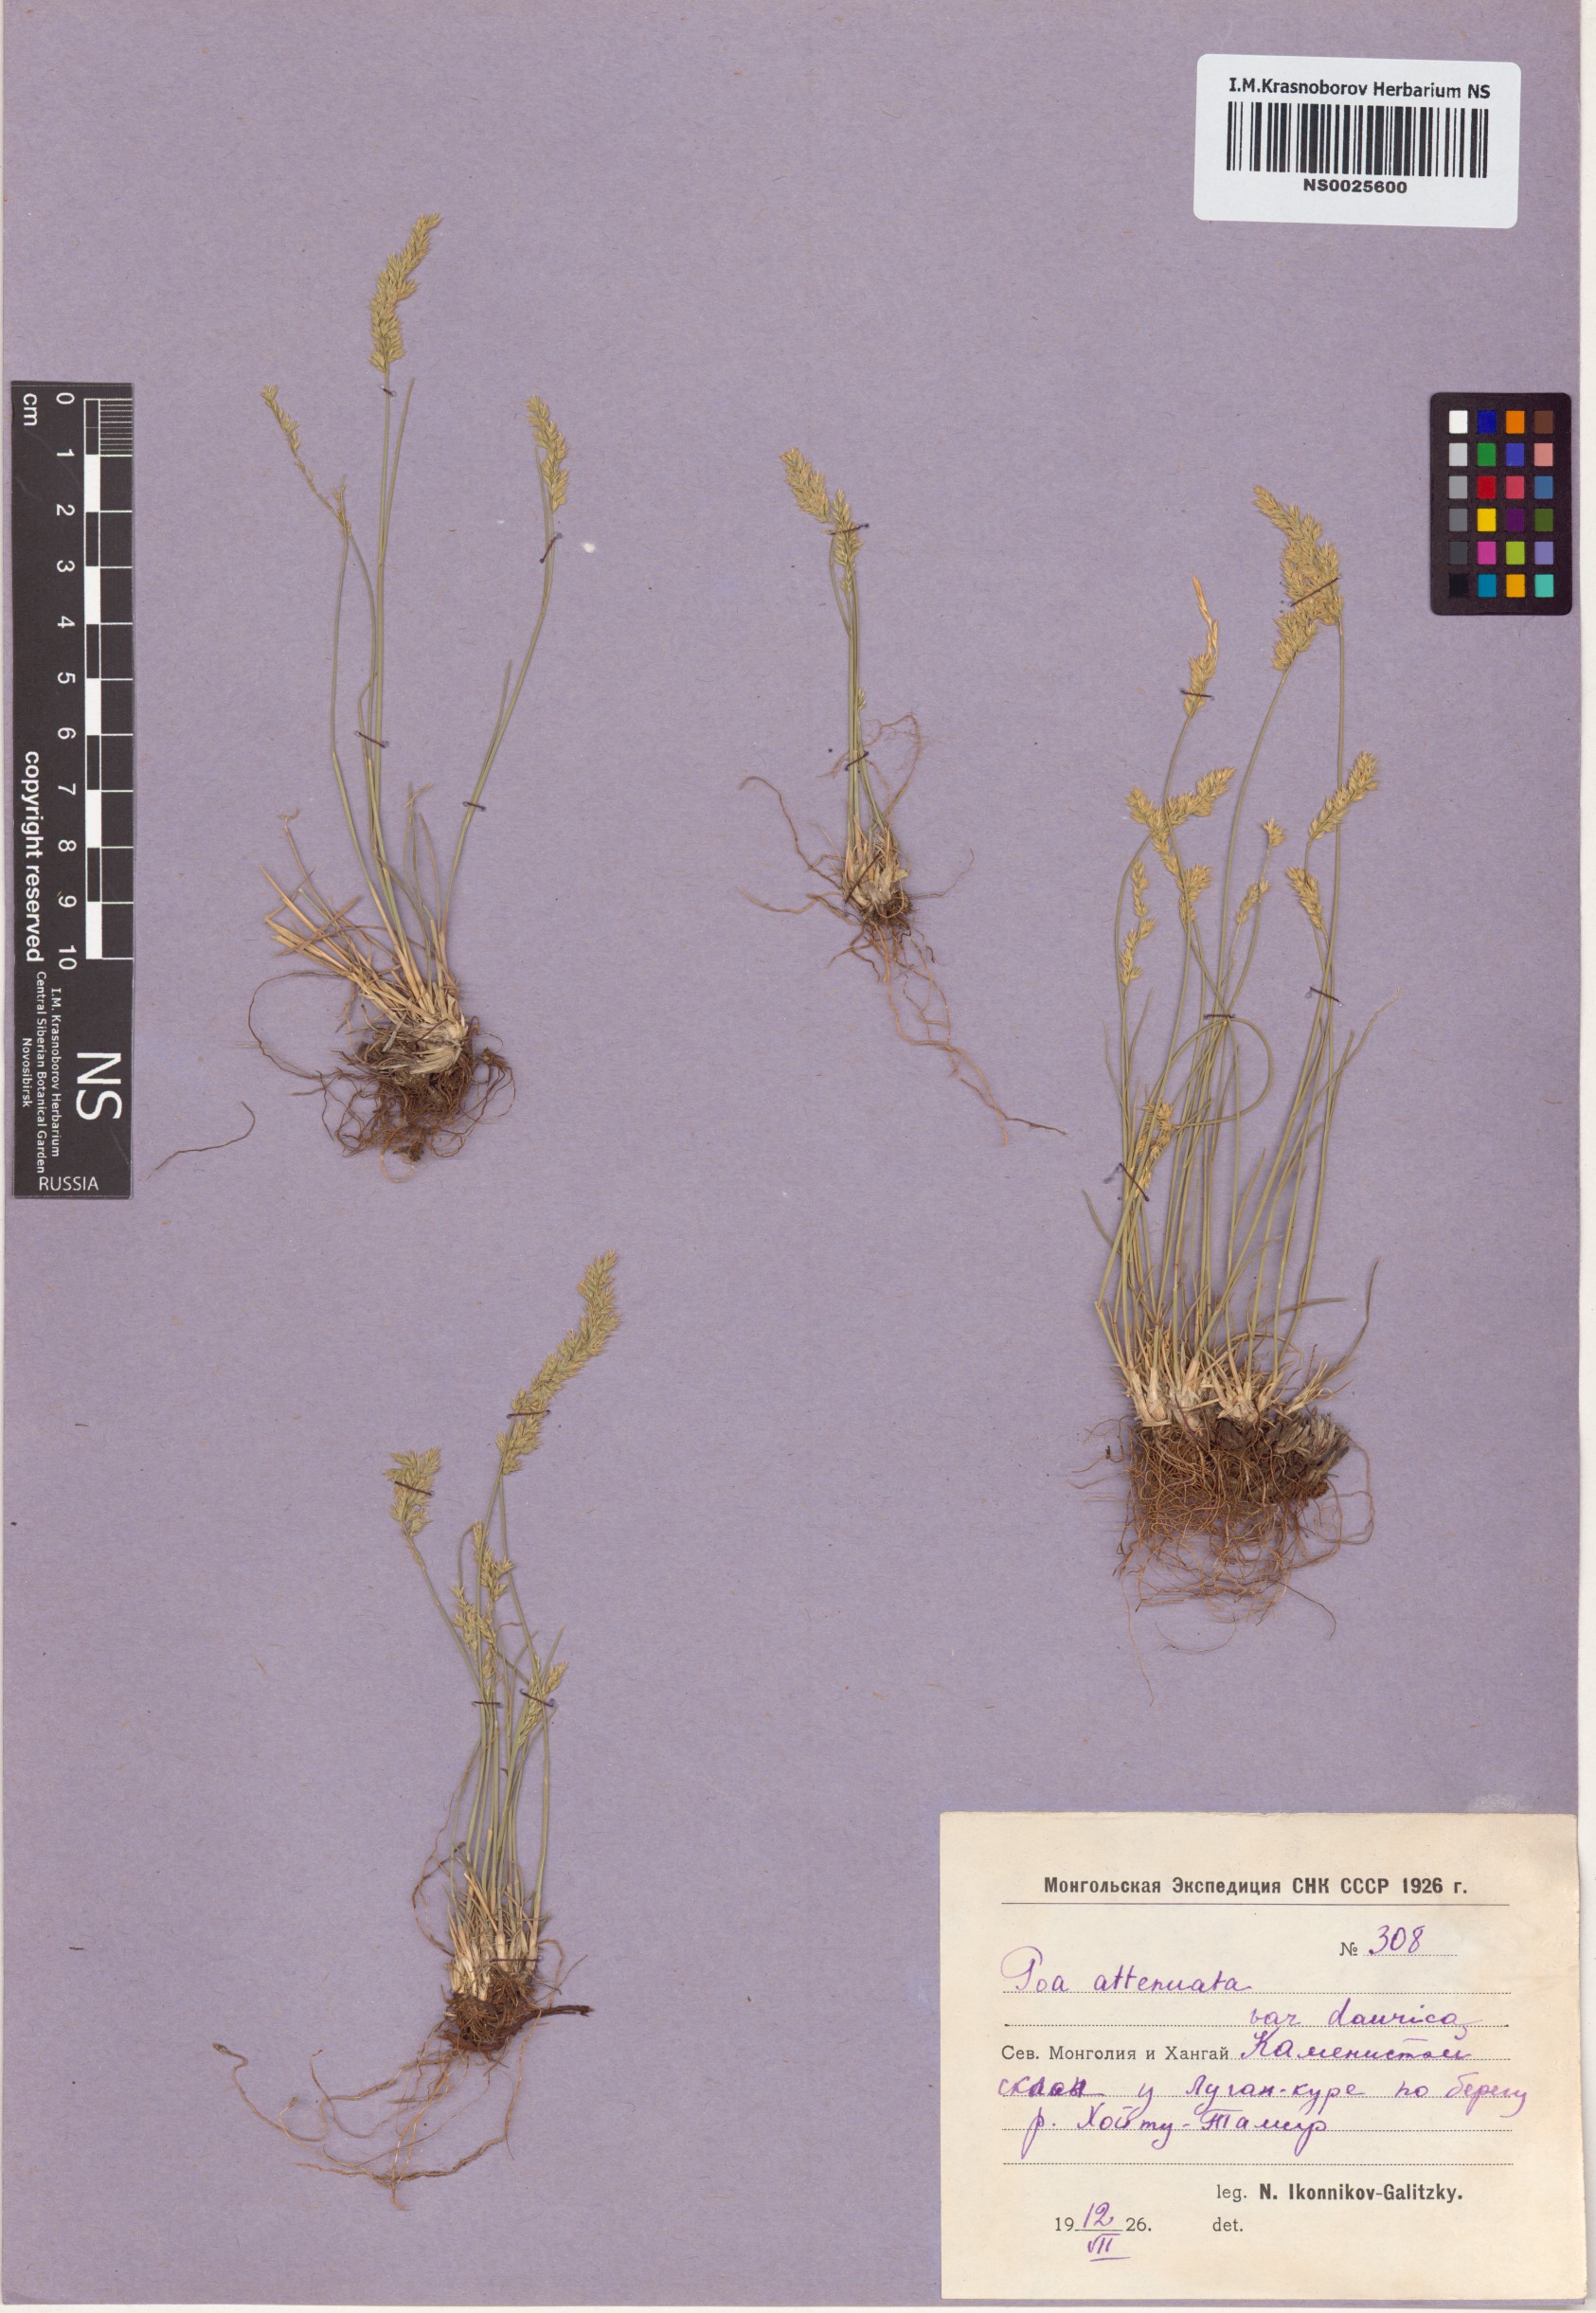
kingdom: Plantae
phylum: Tracheophyta
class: Liliopsida
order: Poales
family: Poaceae
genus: Poa
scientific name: Poa attenuata
